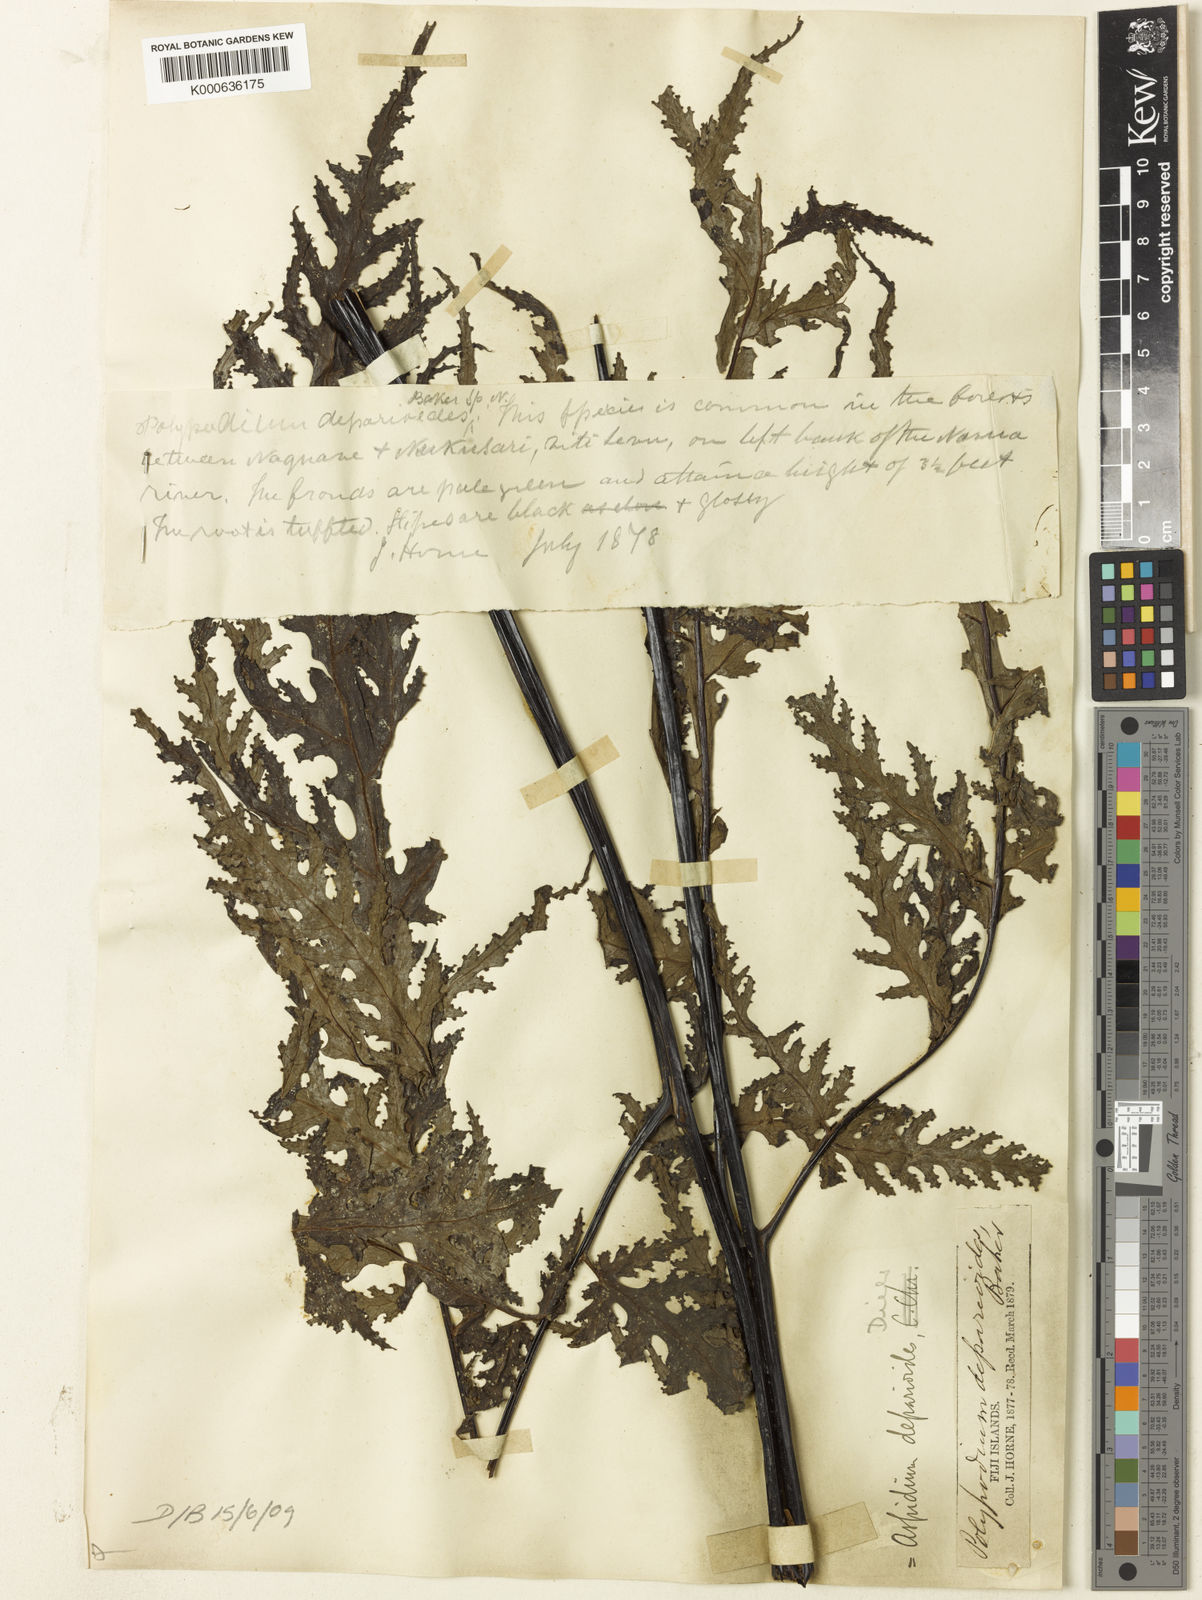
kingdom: Plantae
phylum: Tracheophyta
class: Polypodiopsida
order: Polypodiales
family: Tectariaceae
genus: Tectaria
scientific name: Tectaria godeffroyi
